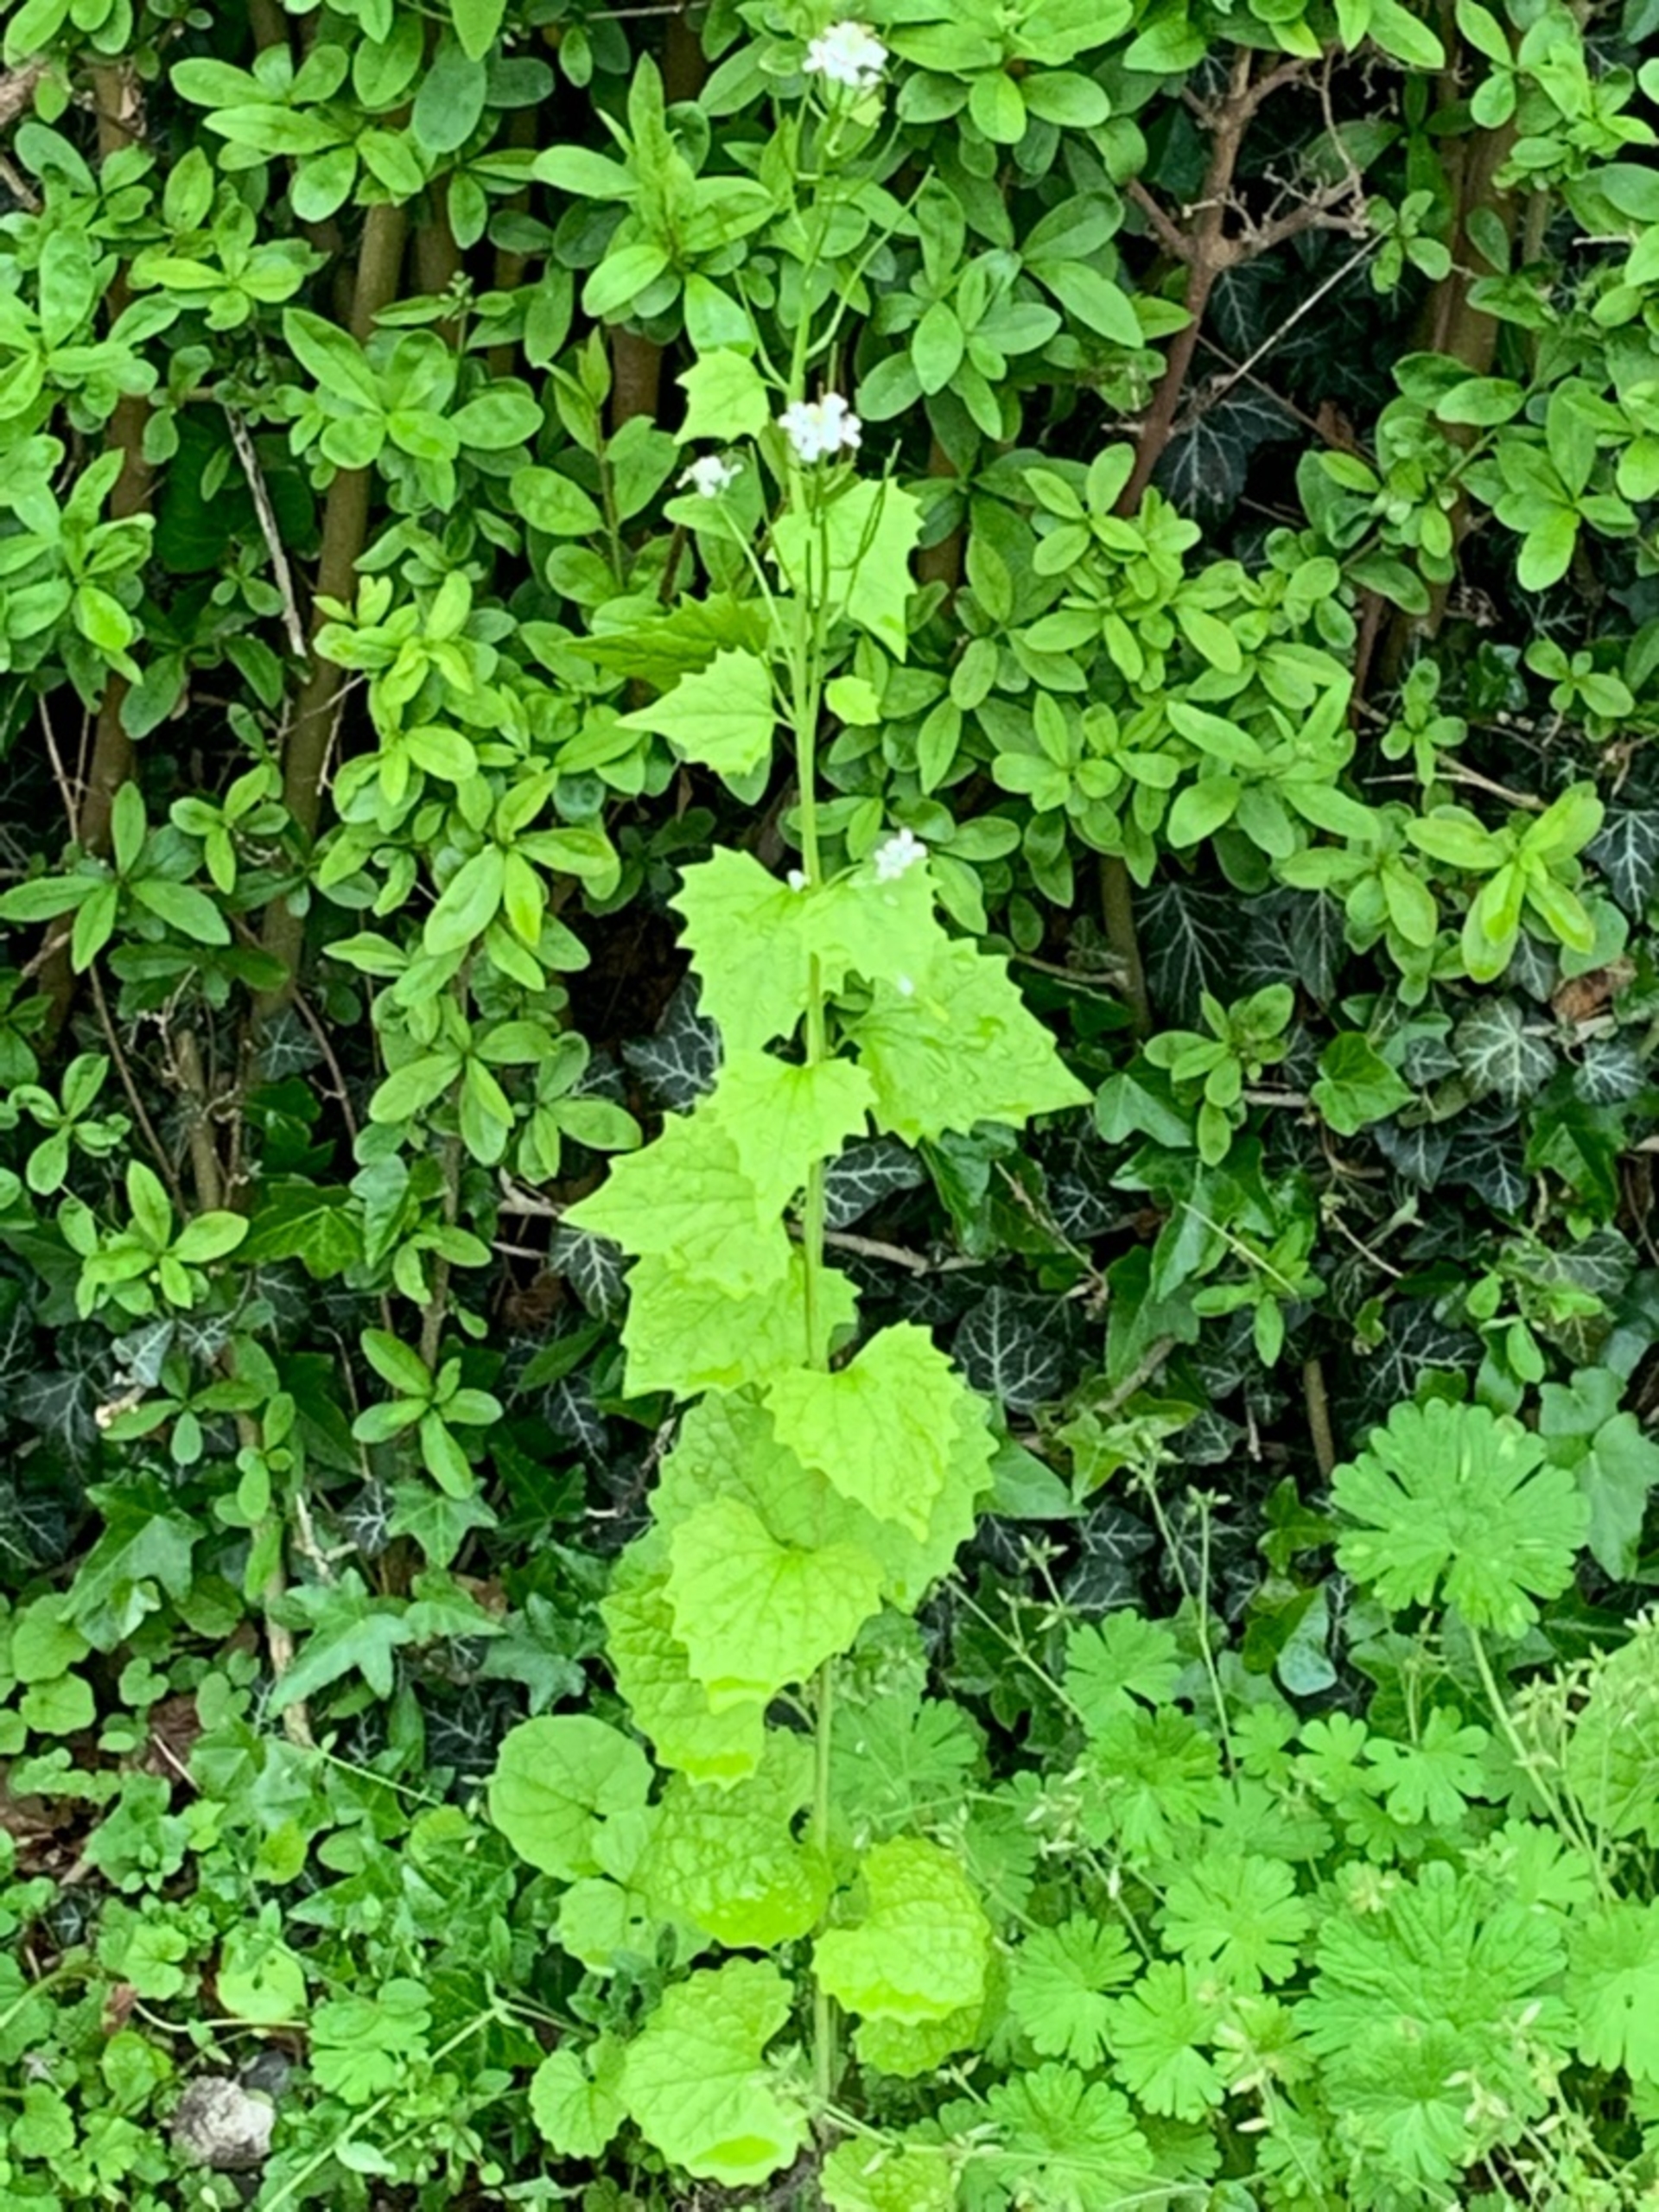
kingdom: Plantae
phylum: Tracheophyta
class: Magnoliopsida
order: Brassicales
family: Brassicaceae
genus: Alliaria
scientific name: Alliaria petiolata
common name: Løgkarse
